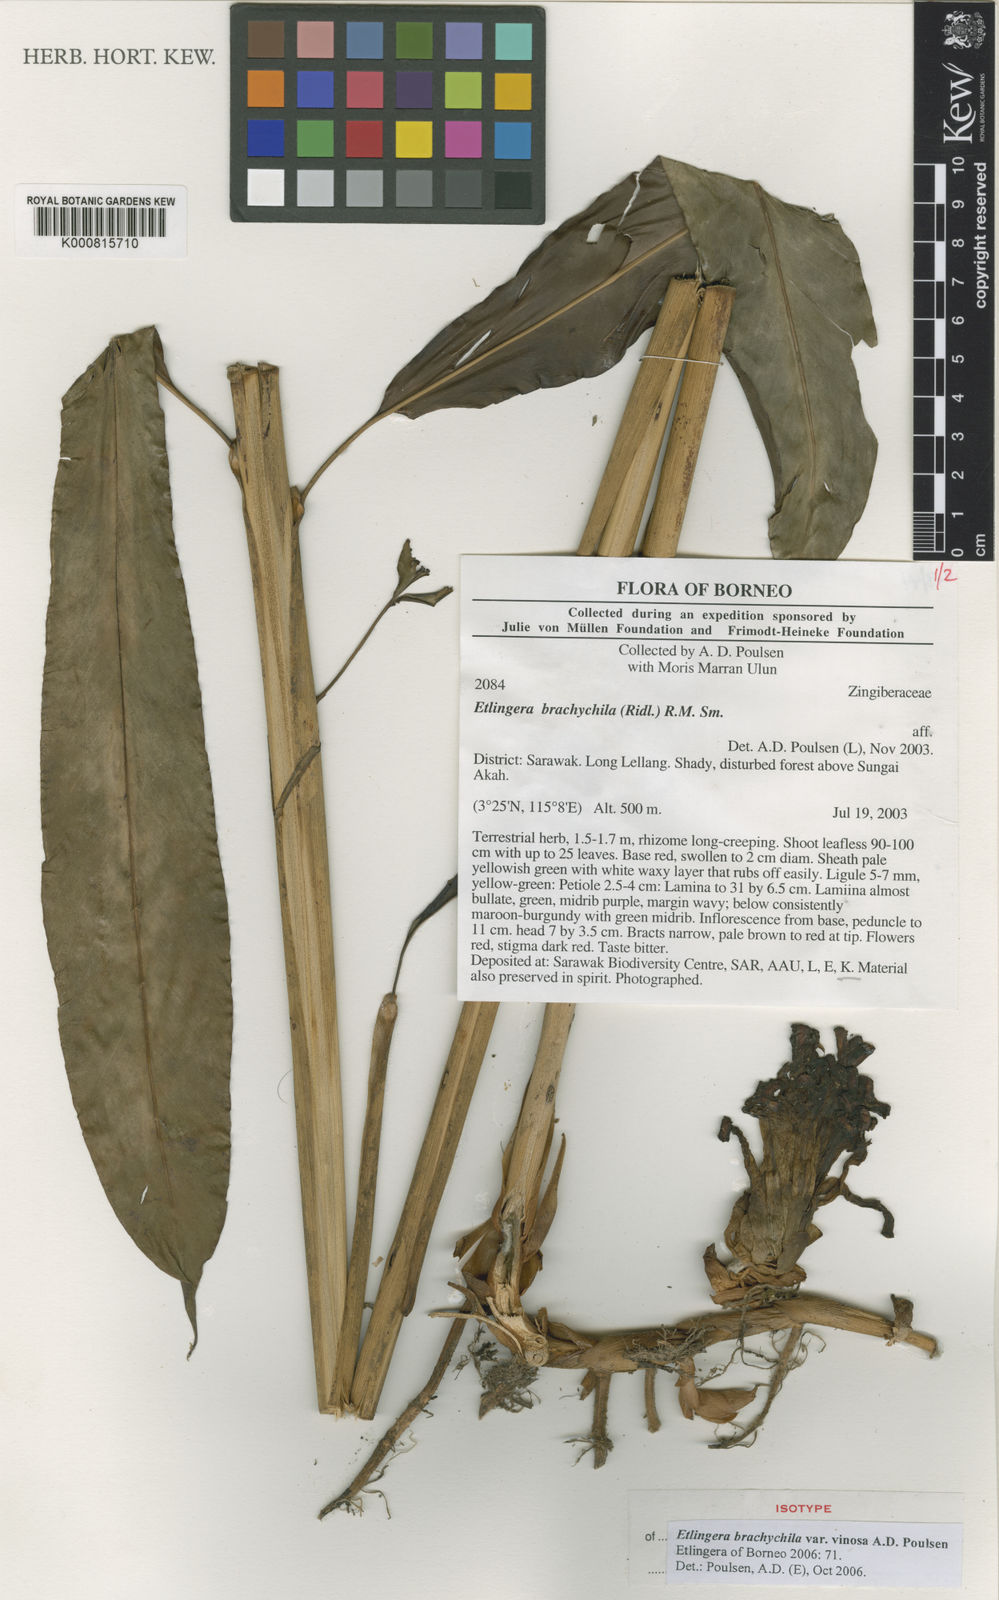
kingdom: Plantae
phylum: Tracheophyta
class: Liliopsida
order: Zingiberales
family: Zingiberaceae
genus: Etlingera
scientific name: Etlingera brachychila
